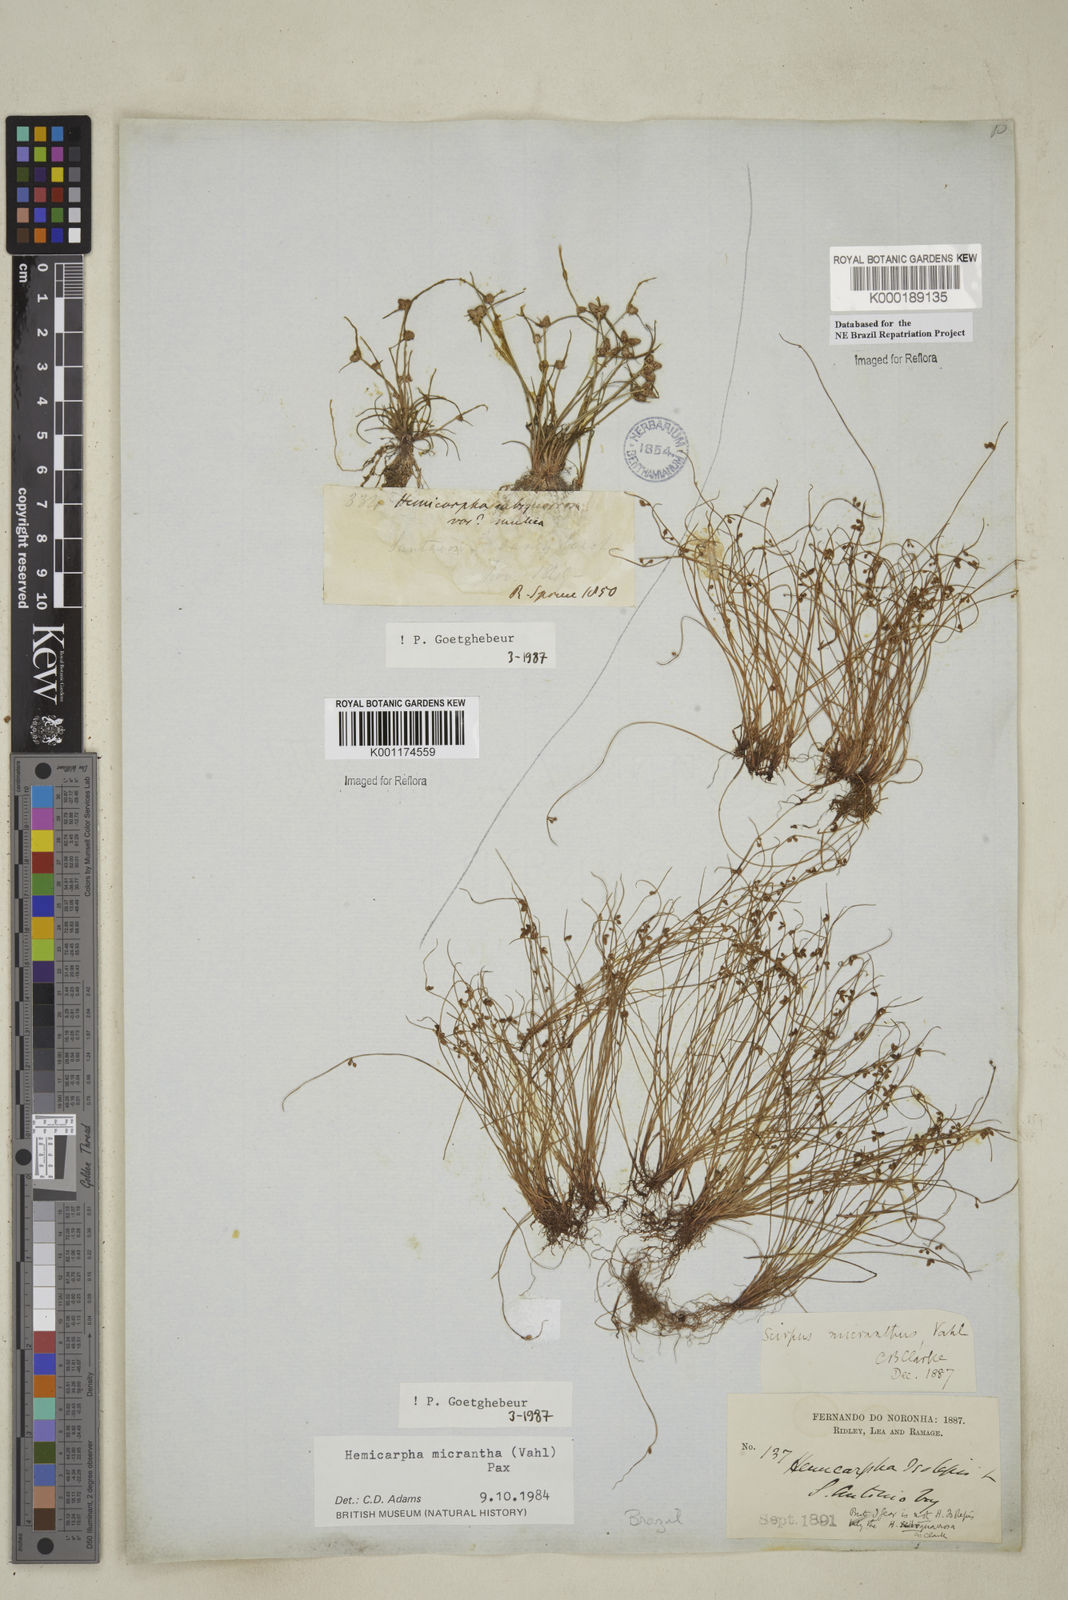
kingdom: Plantae
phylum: Tracheophyta
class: Liliopsida
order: Poales
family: Cyperaceae
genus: Cyperus
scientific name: Cyperus subsquarrosus
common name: Dwarf bulrush
